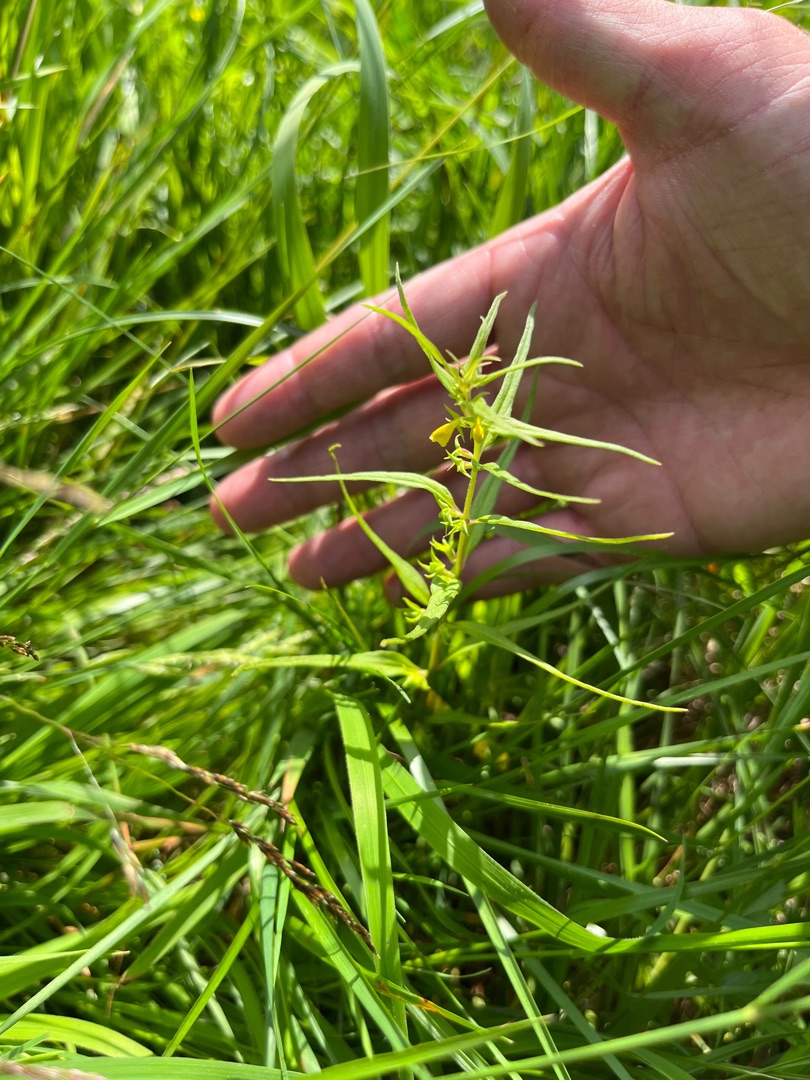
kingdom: Plantae
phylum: Tracheophyta
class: Magnoliopsida
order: Lamiales
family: Orobanchaceae
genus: Melampyrum
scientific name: Melampyrum sylvaticum
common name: Skov-kohvede
